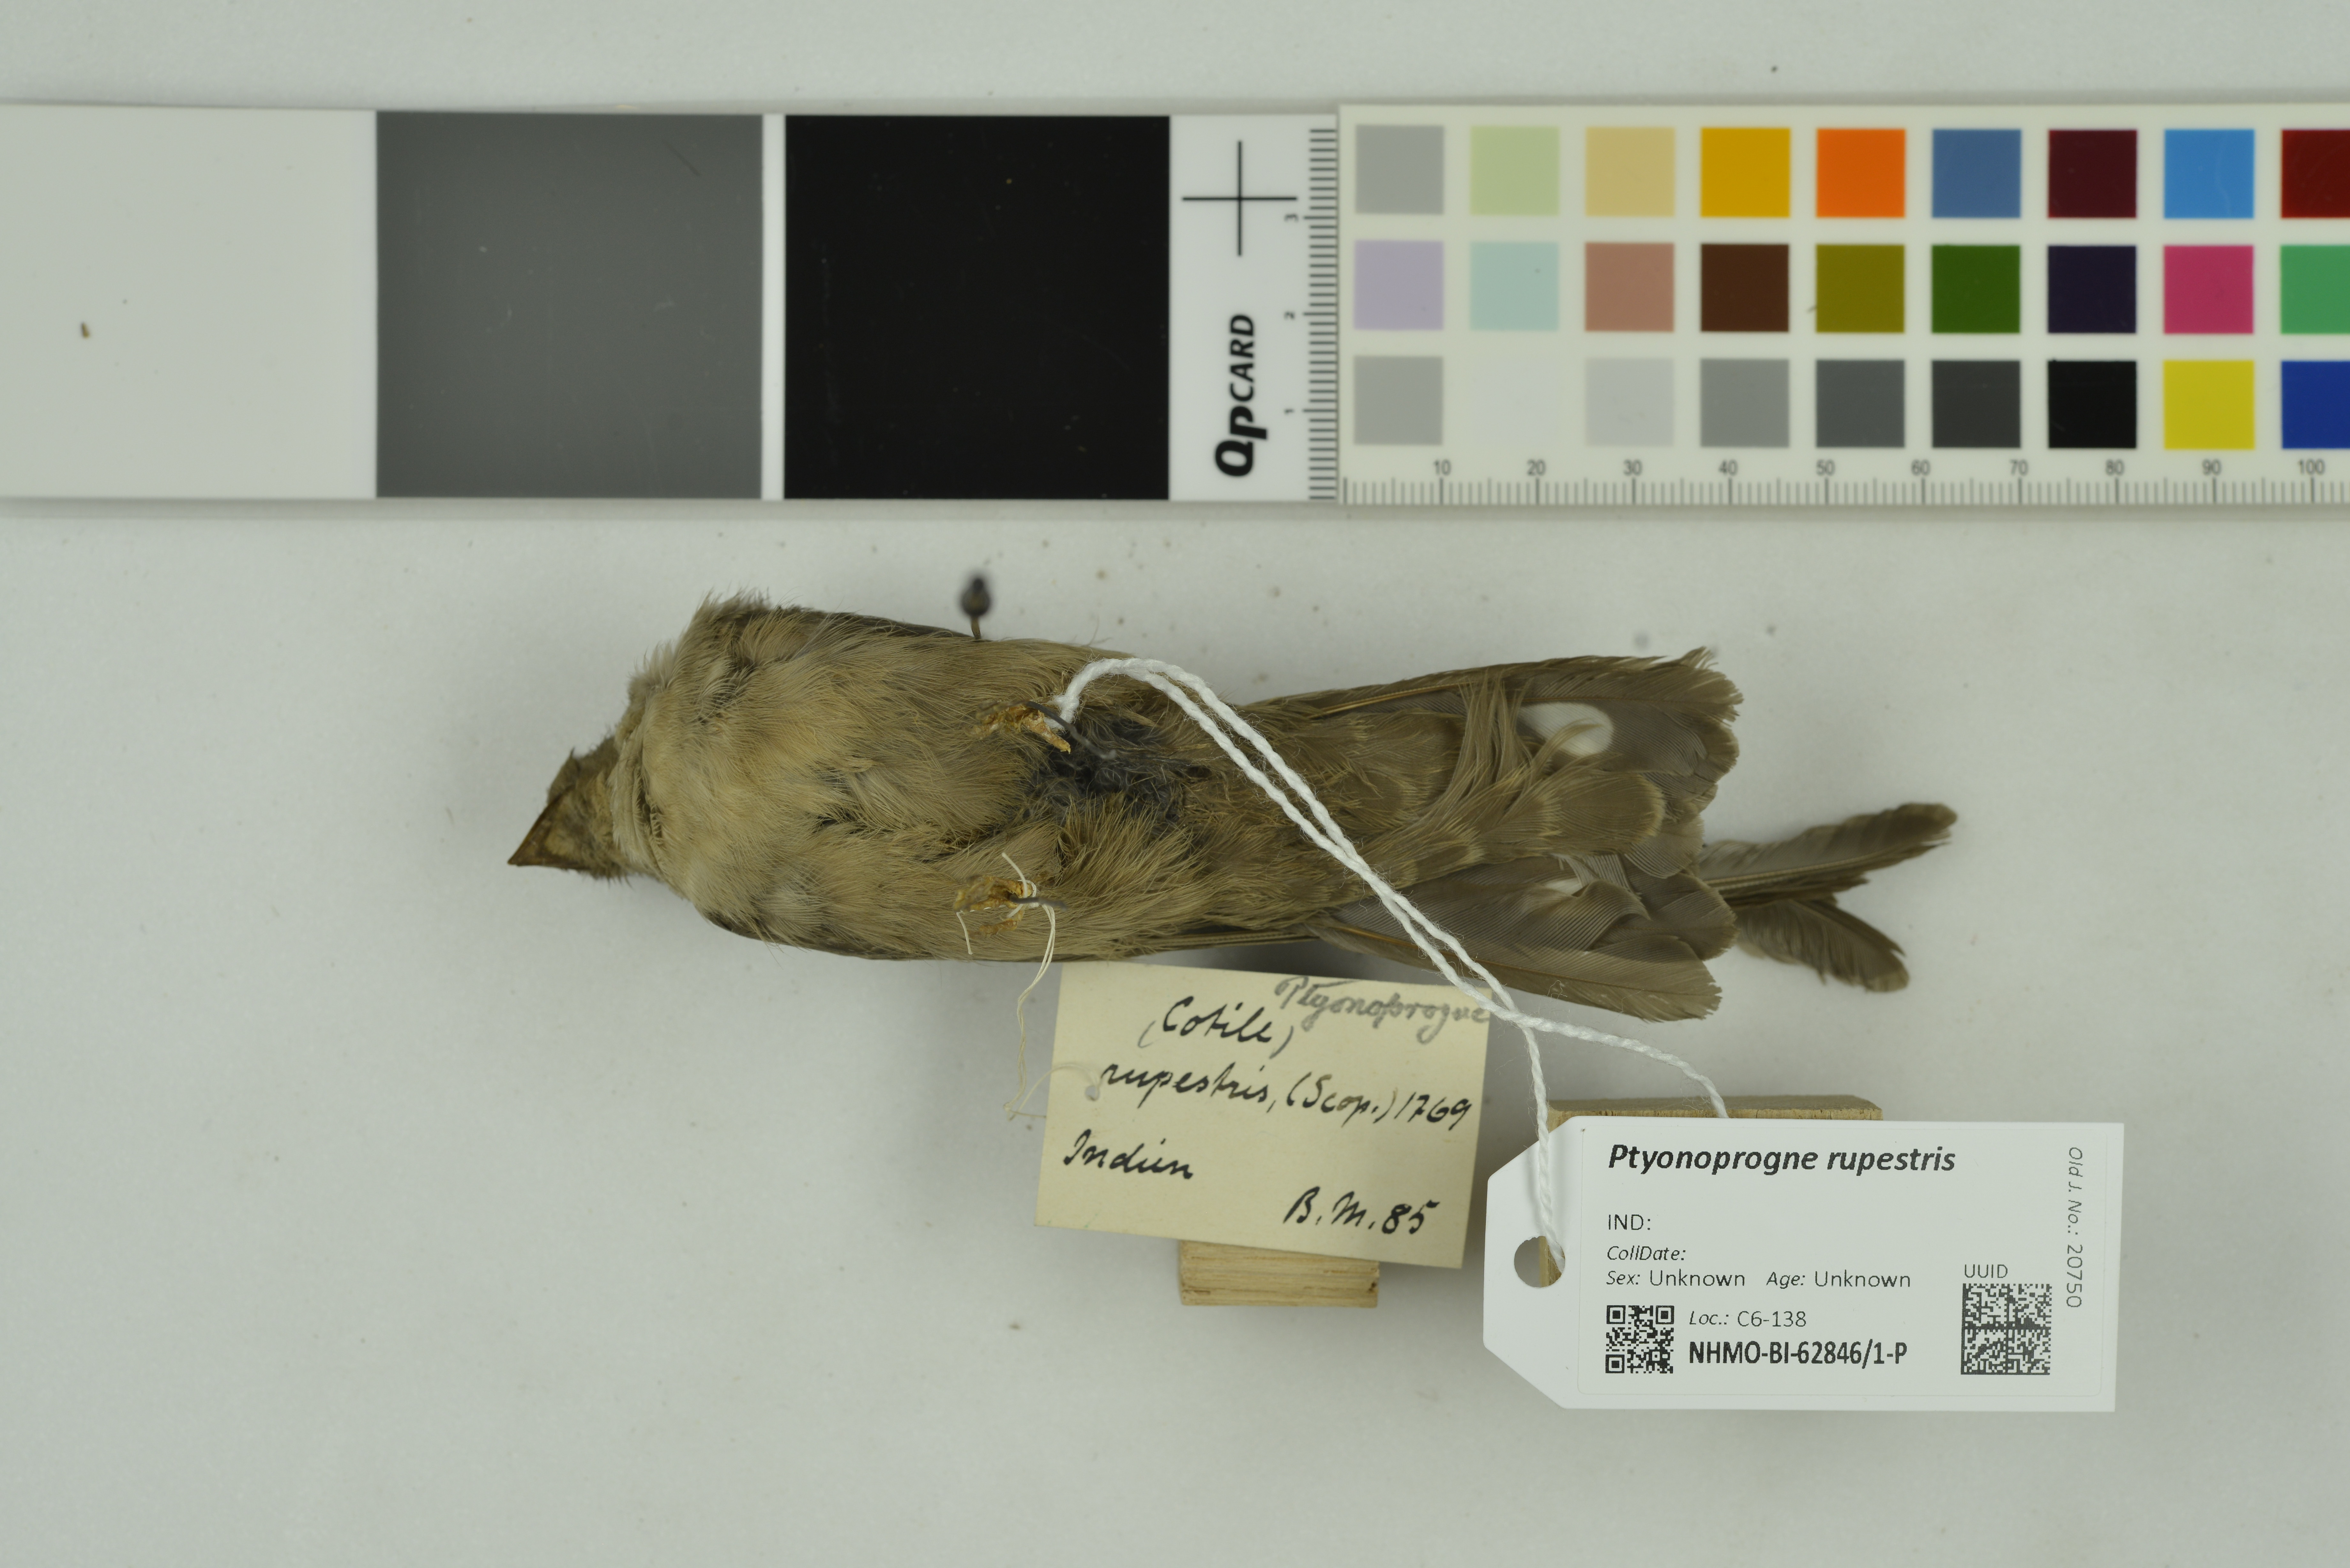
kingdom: Animalia
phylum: Chordata
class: Aves
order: Passeriformes
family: Hirundinidae
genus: Ptyonoprogne
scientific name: Ptyonoprogne rupestris
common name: Eurasian crag martin
